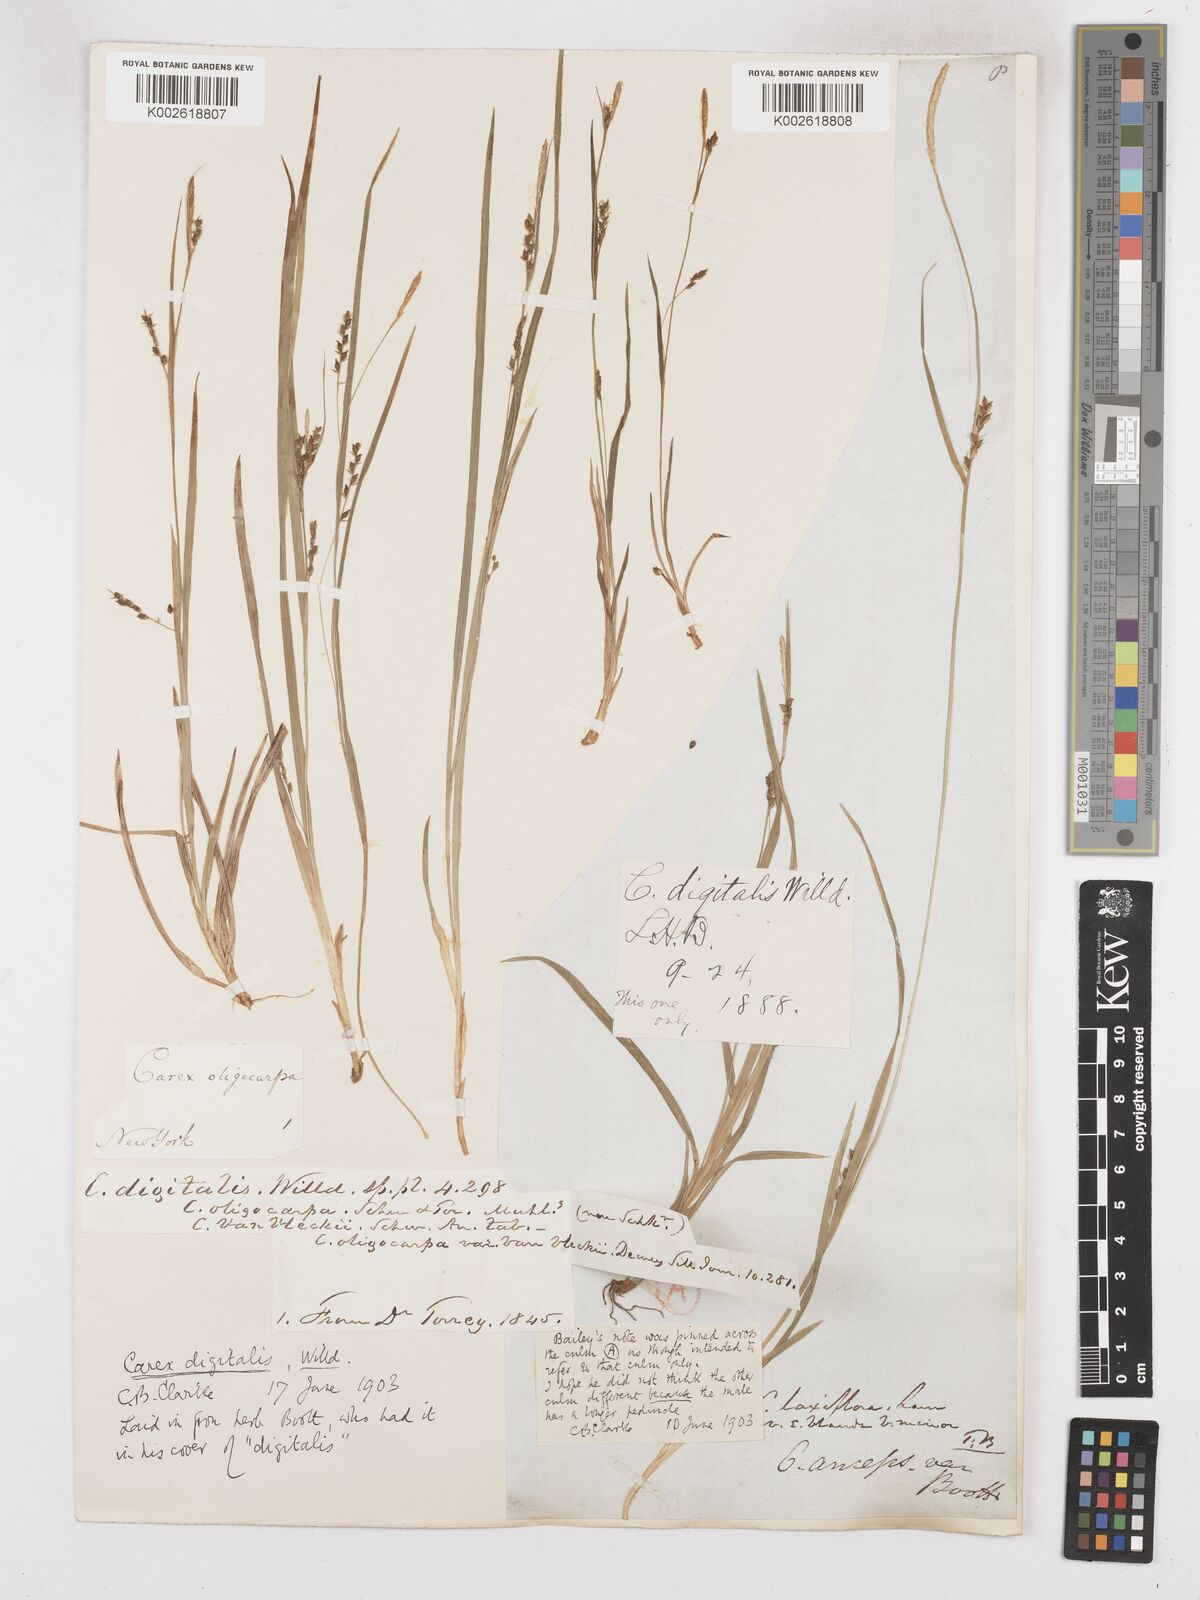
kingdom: Plantae
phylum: Tracheophyta
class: Liliopsida
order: Poales
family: Cyperaceae
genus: Carex
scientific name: Carex digitalis
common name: Slender wood sedge
